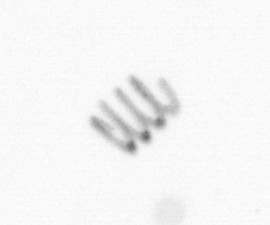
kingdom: Chromista
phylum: Ochrophyta
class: Bacillariophyceae
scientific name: Bacillariophyceae
